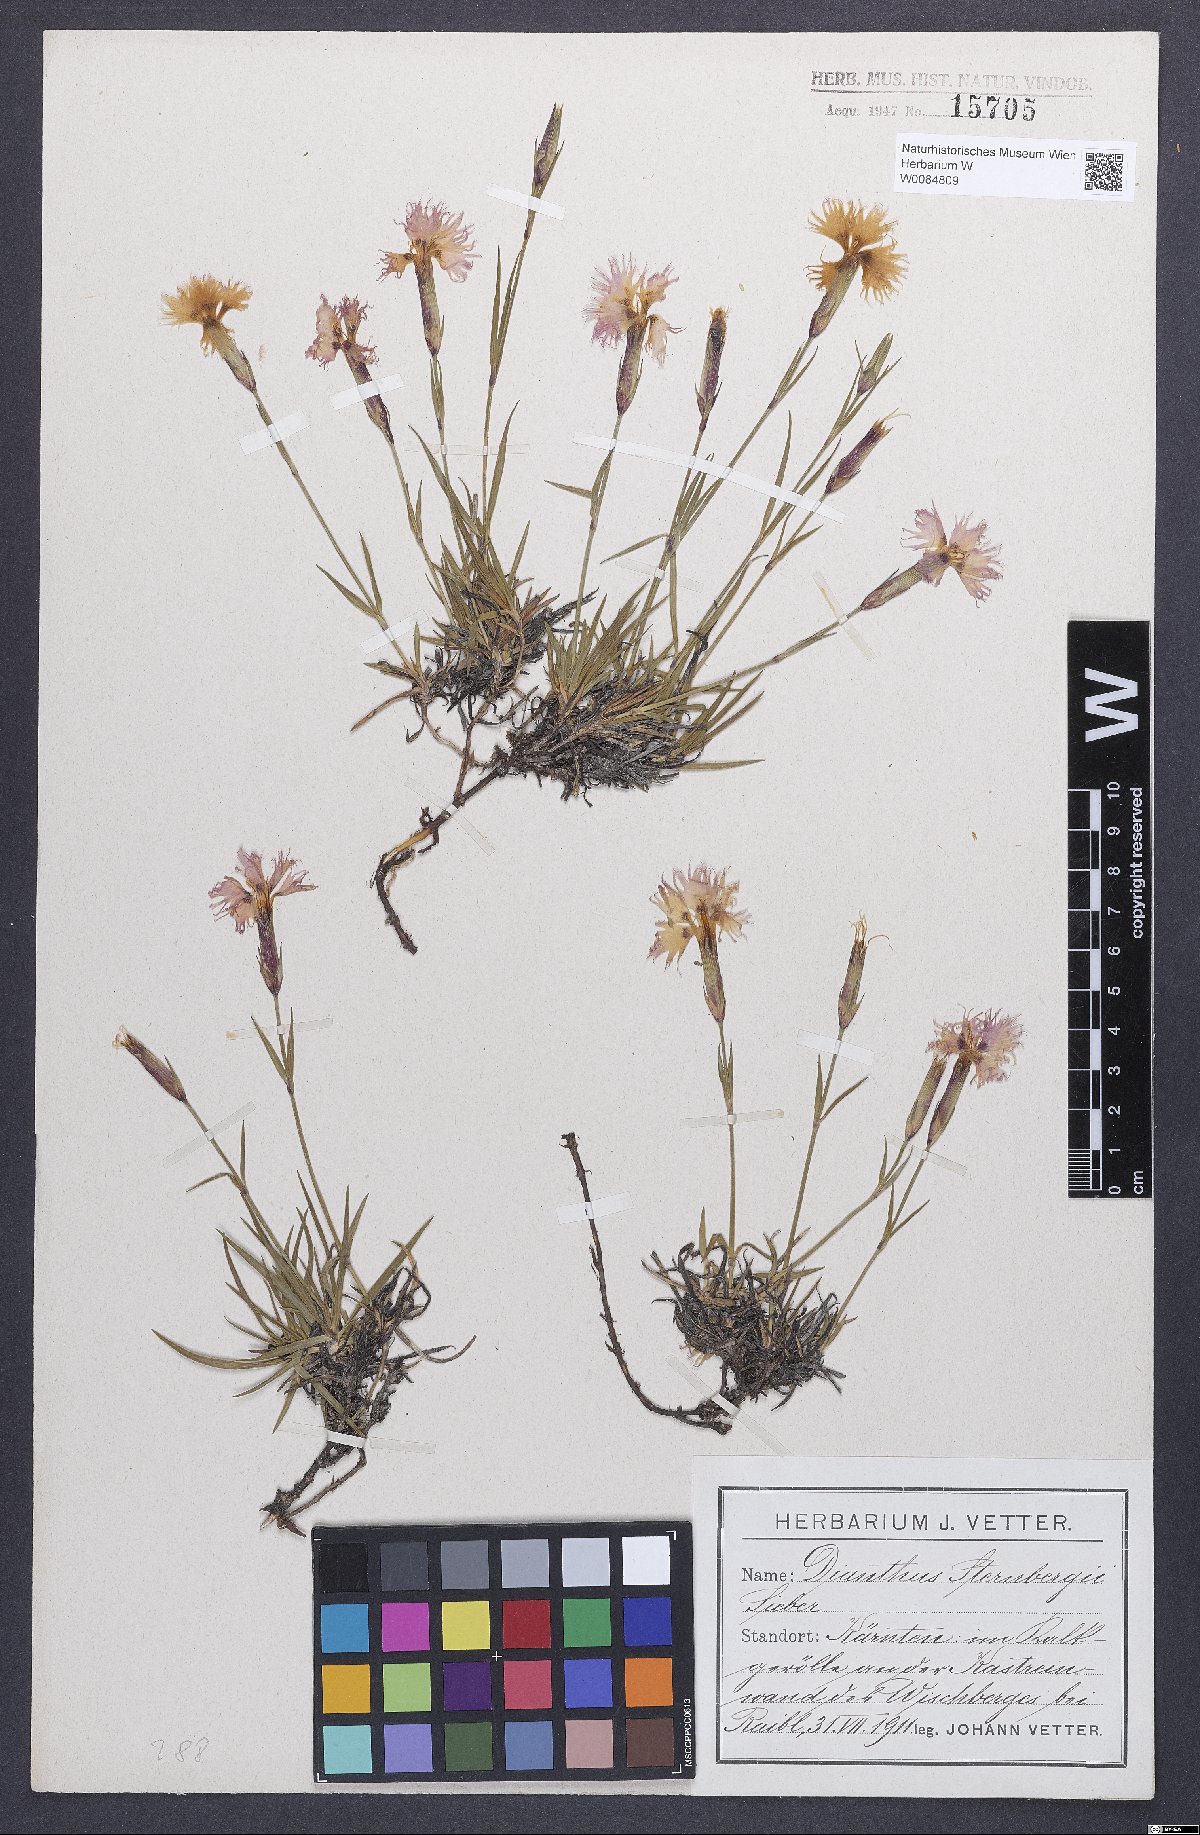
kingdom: Plantae
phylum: Tracheophyta
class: Magnoliopsida
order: Caryophyllales
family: Caryophyllaceae
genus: Dianthus
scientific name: Dianthus monspessulanus
